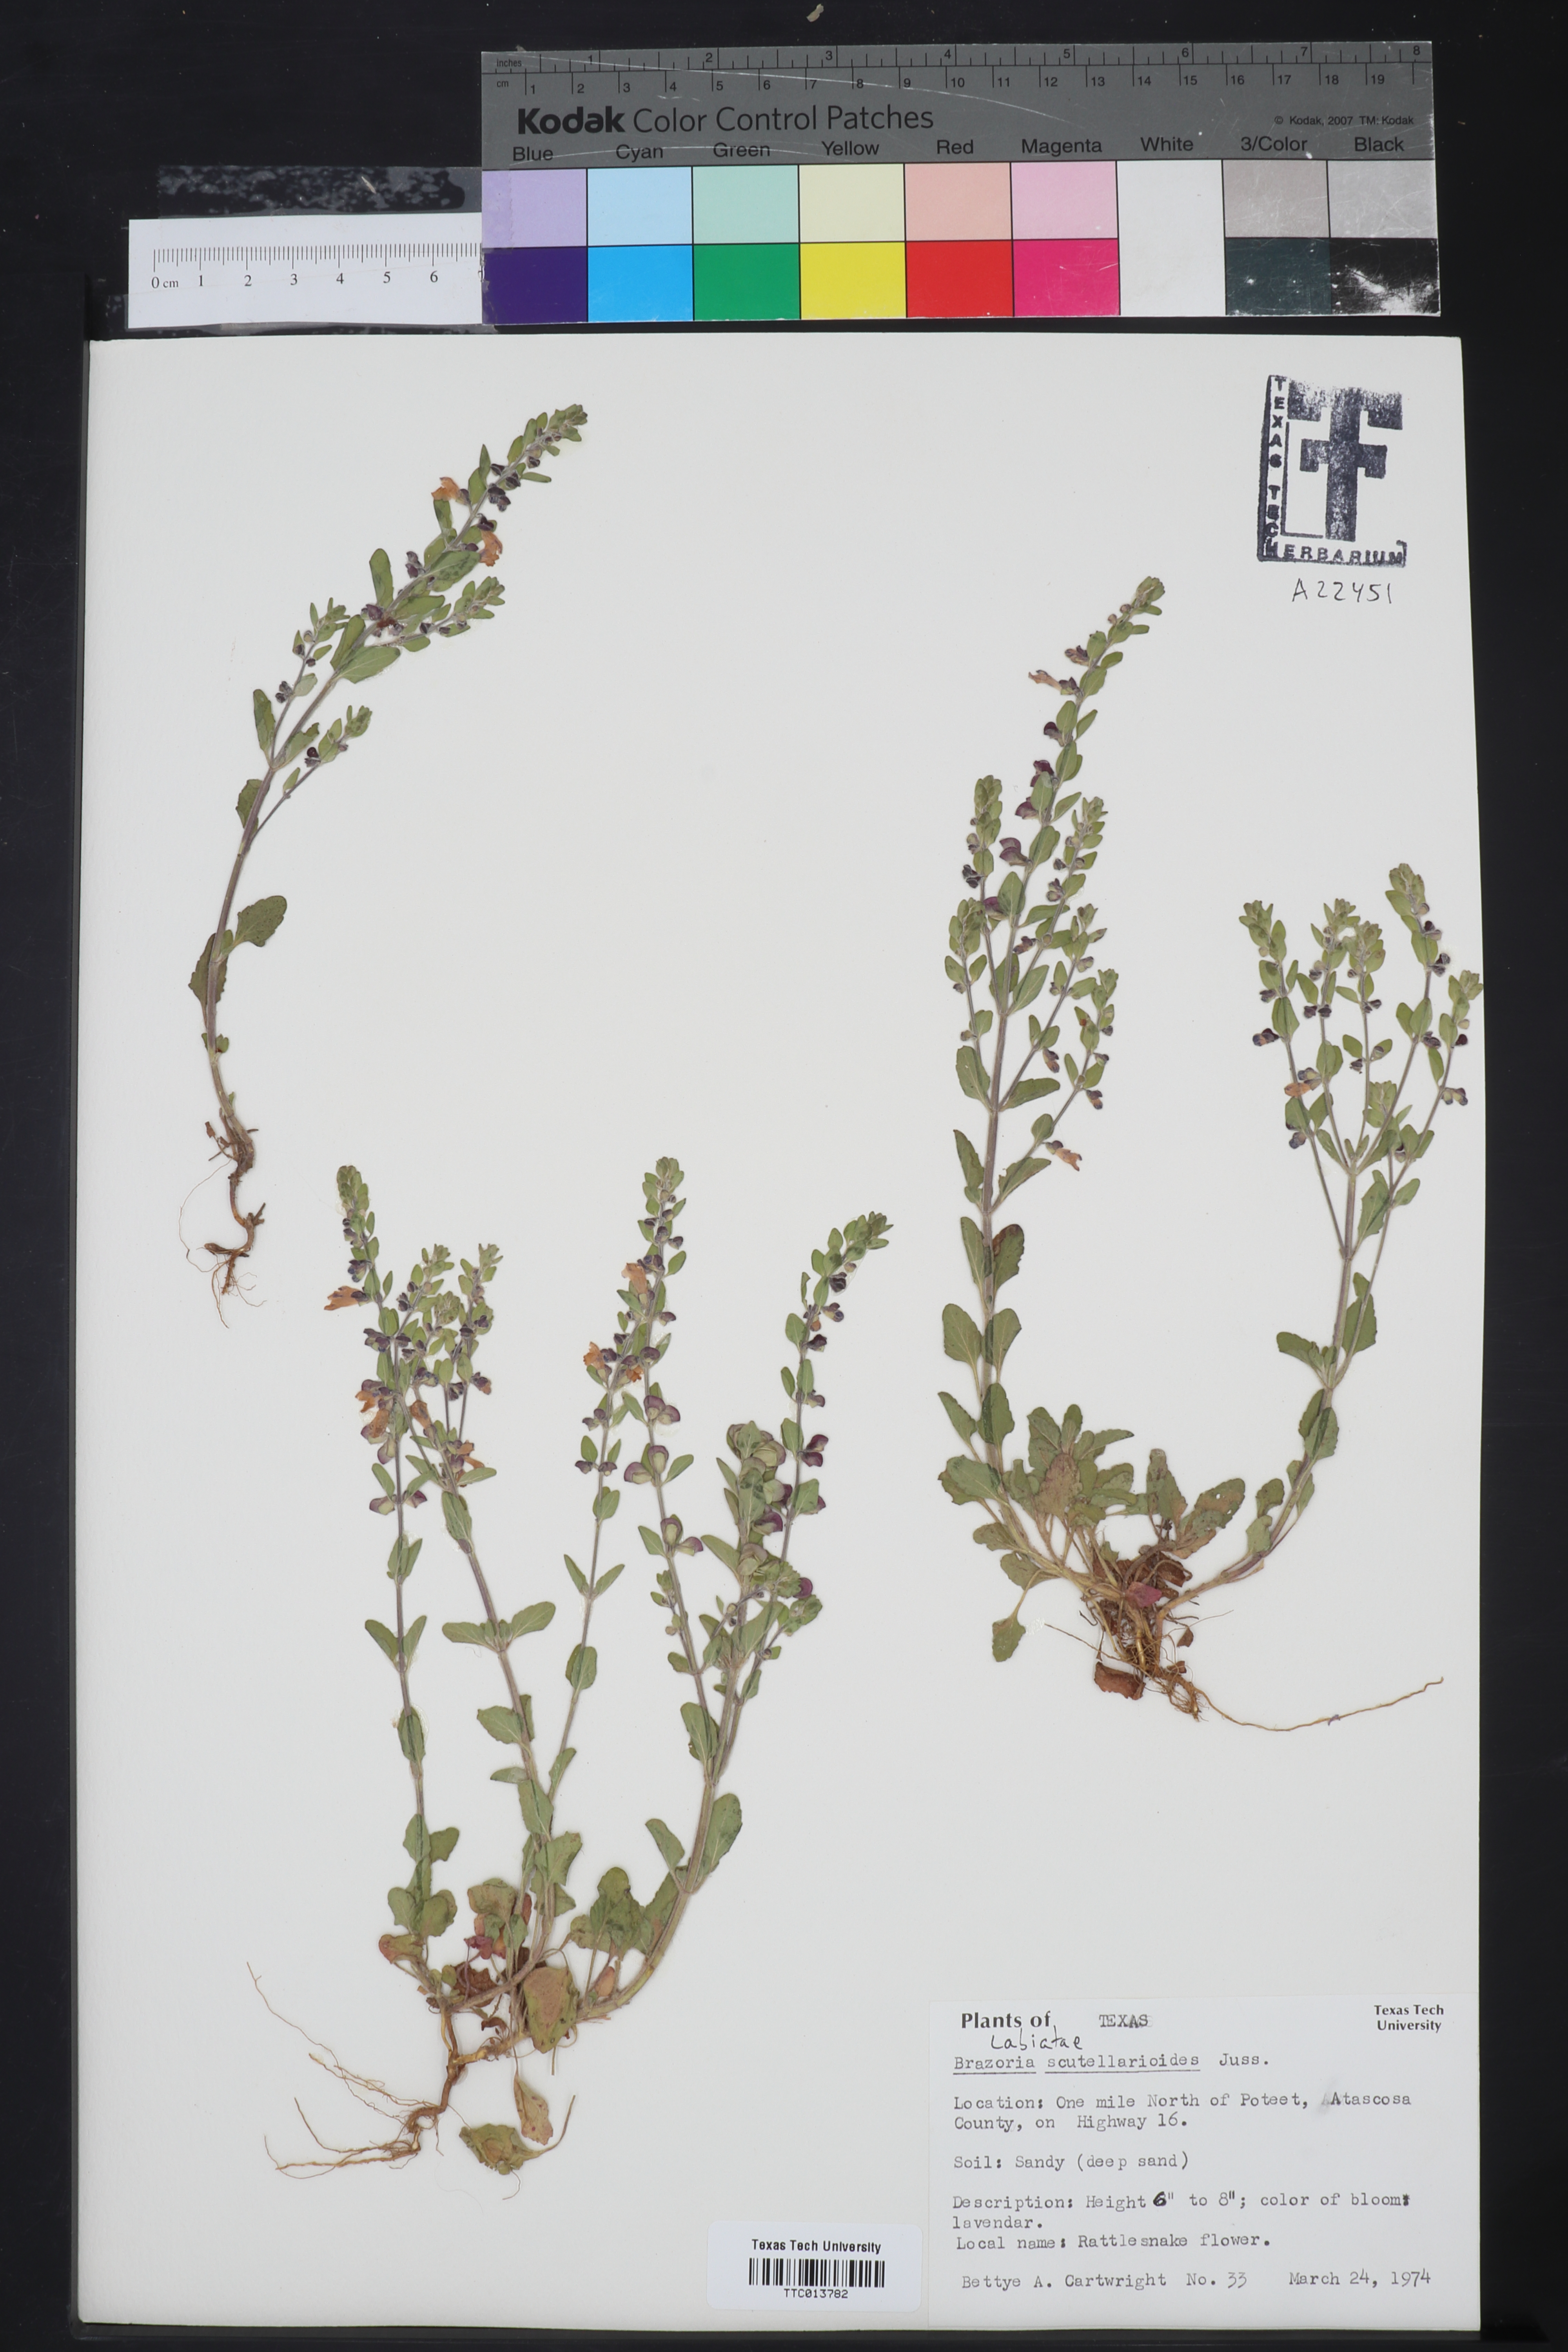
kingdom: Plantae
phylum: Tracheophyta
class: Magnoliopsida
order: Lamiales
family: Lamiaceae
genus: Warnockia
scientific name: Warnockia scutellarioides
